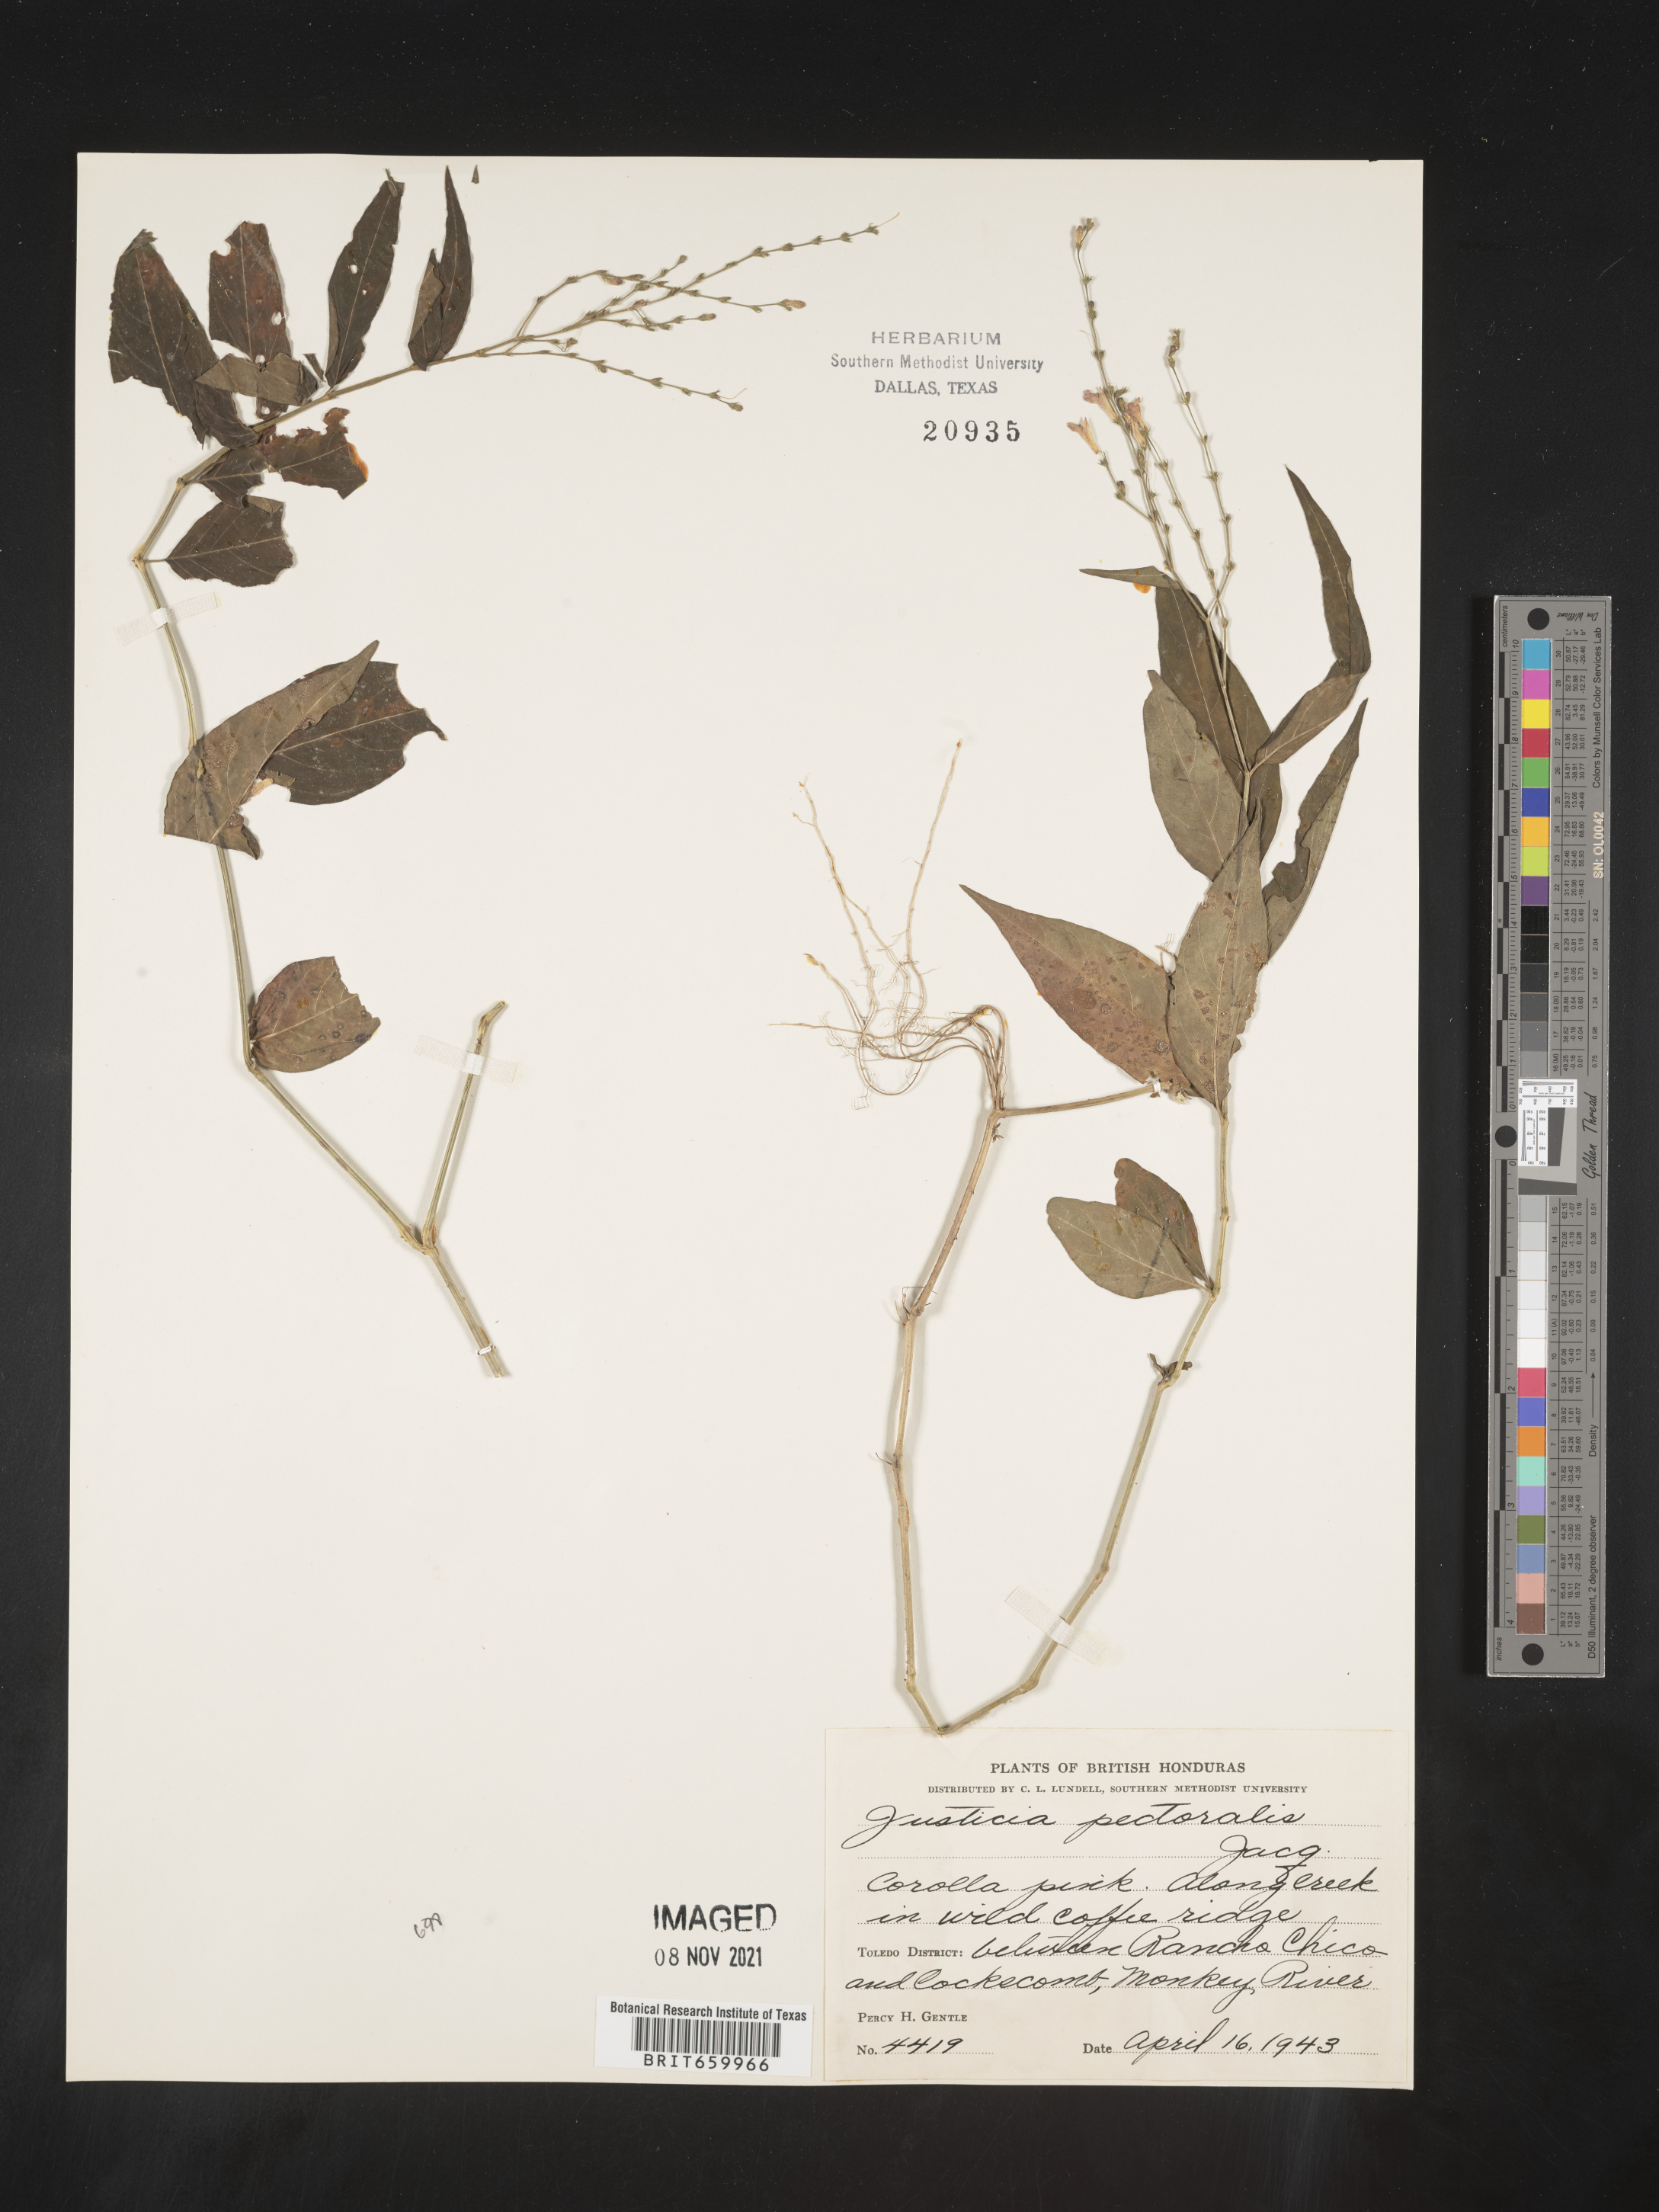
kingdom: Plantae
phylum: Tracheophyta
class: Magnoliopsida
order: Lamiales
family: Acanthaceae
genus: Justicia
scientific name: Justicia
